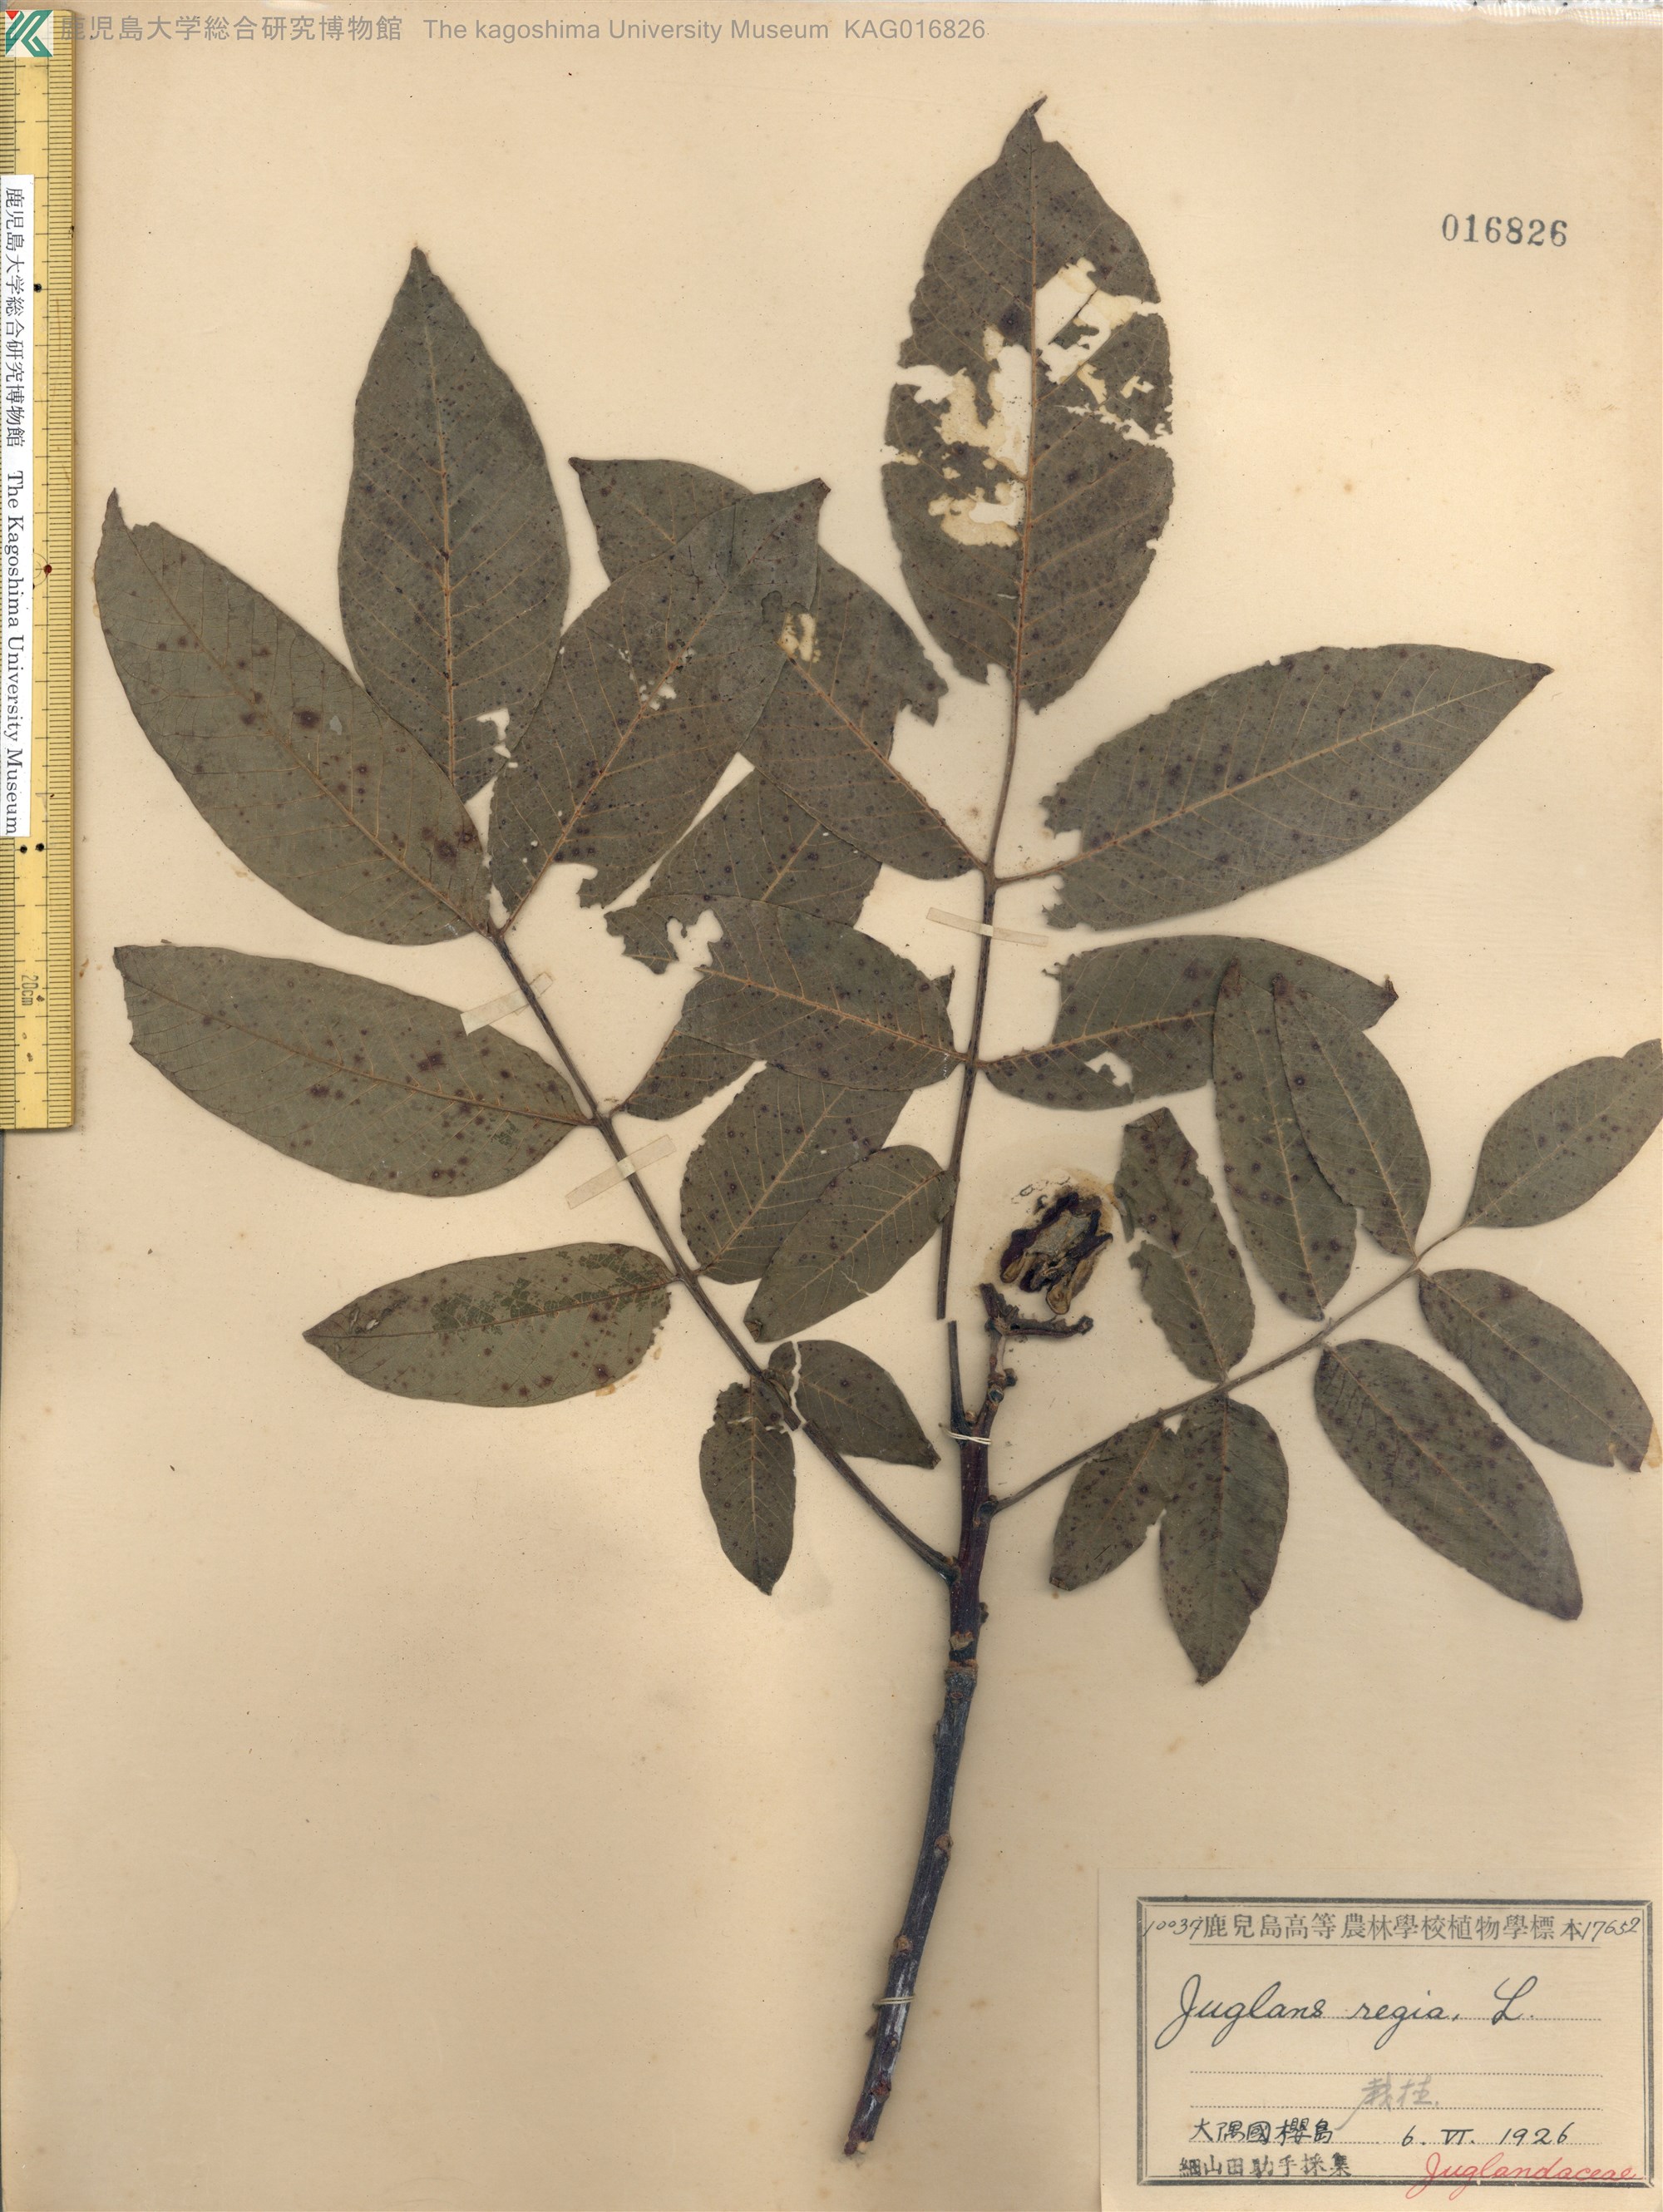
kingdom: Plantae
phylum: Tracheophyta
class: Magnoliopsida
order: Fagales
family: Juglandaceae
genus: Juglans
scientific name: Juglans regia
